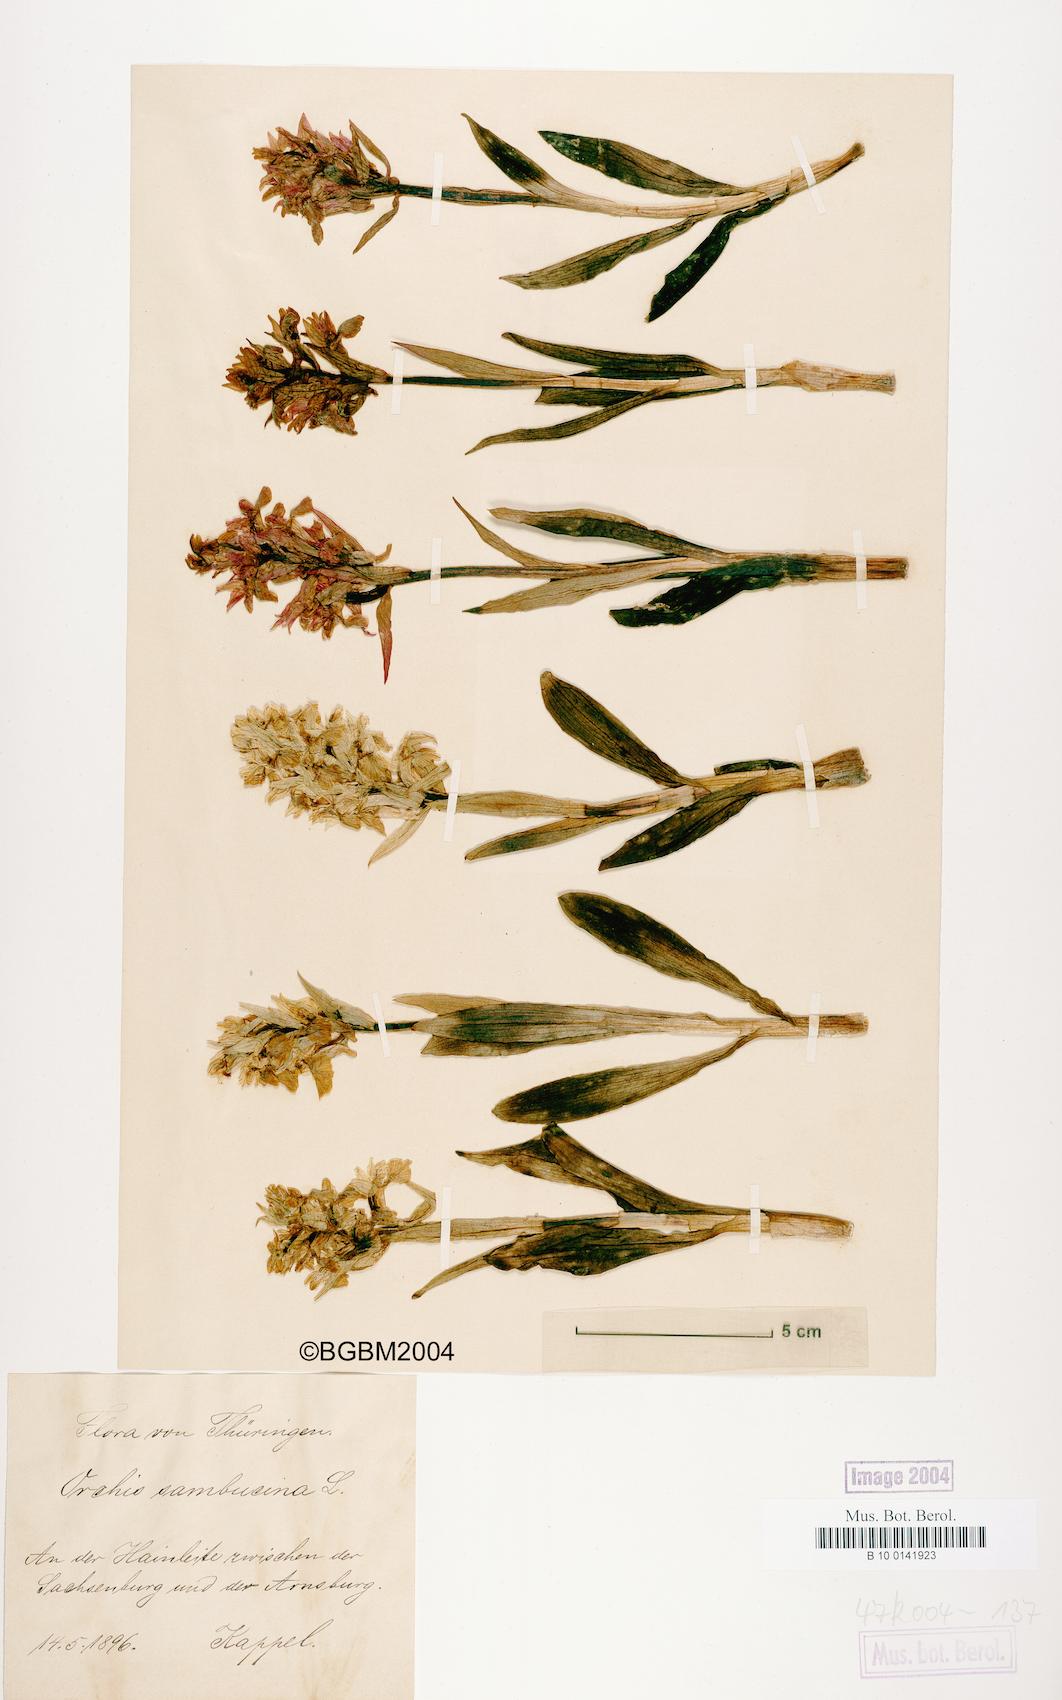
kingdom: Plantae
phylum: Tracheophyta
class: Liliopsida
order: Asparagales
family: Orchidaceae
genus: Dactylorhiza
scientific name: Dactylorhiza sambucina
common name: Elder-flowered orchid
